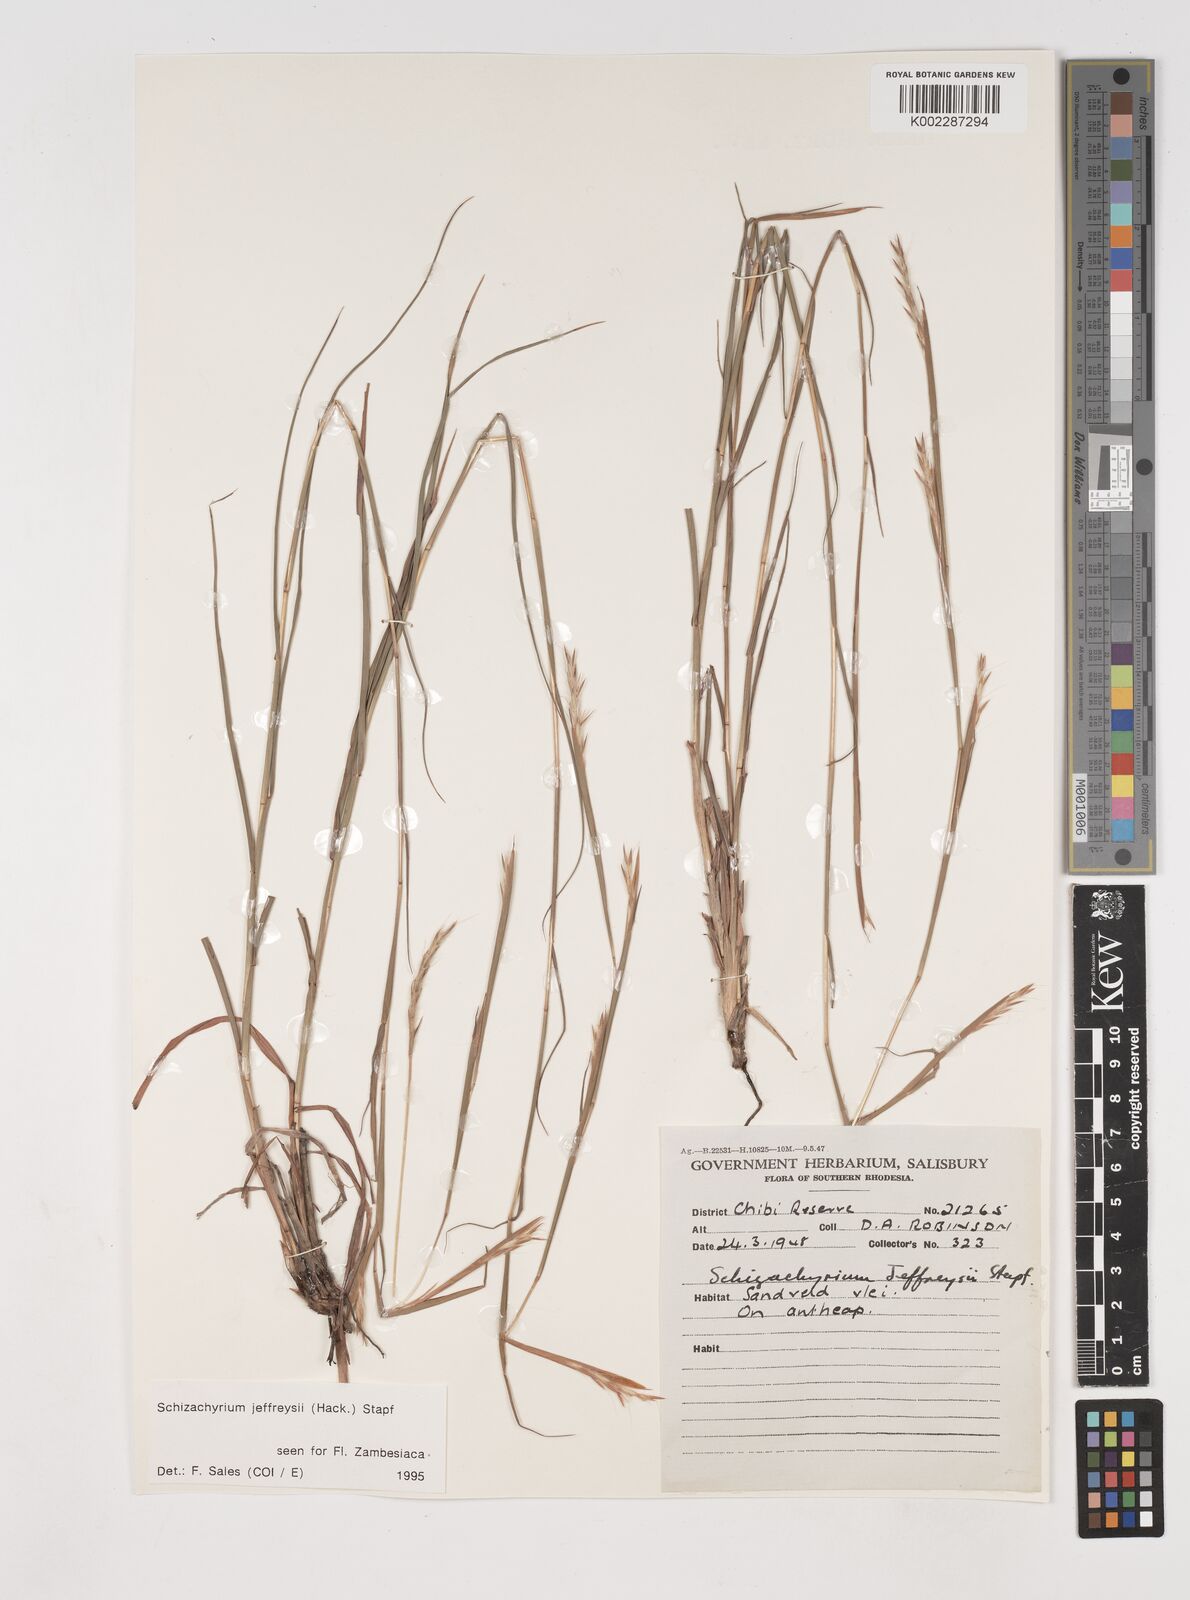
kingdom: Plantae
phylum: Tracheophyta
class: Liliopsida
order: Poales
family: Poaceae
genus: Schizachyrium
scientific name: Schizachyrium jeffreysii
